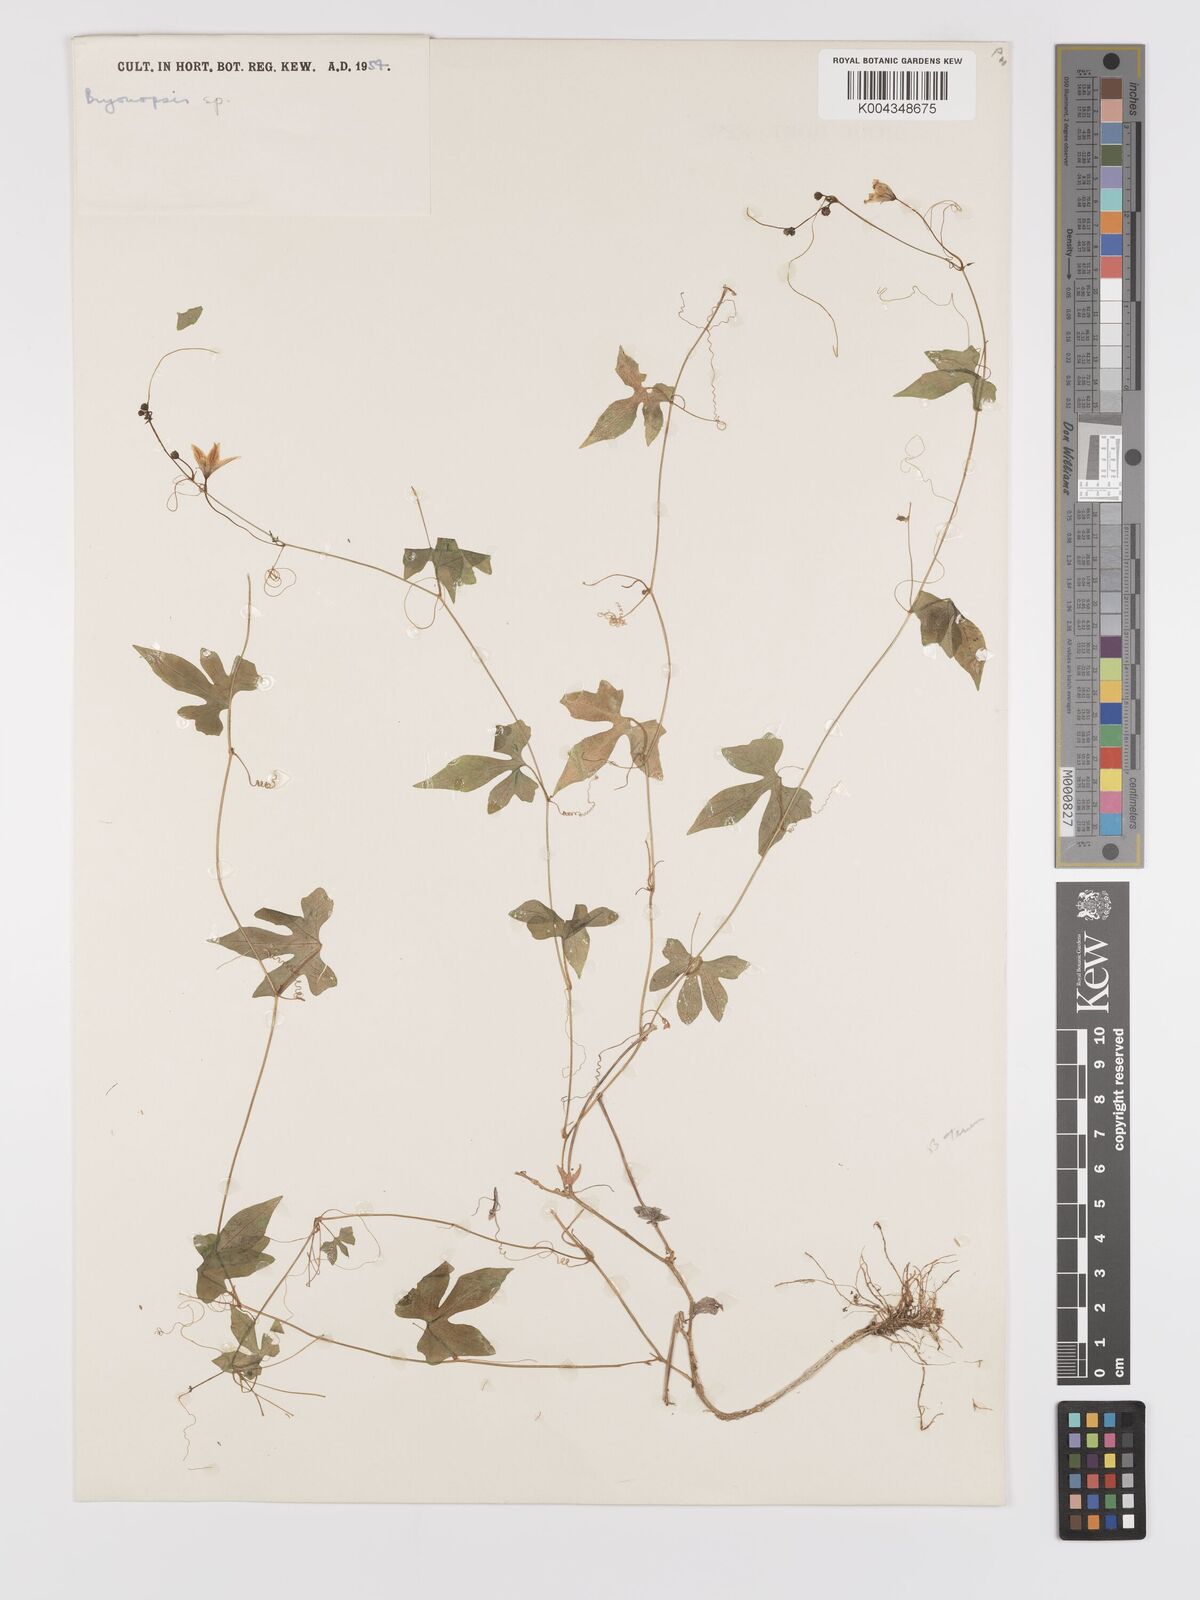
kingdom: Plantae
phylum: Tracheophyta
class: Magnoliopsida
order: Cucurbitales
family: Cucurbitaceae
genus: Diplocyclos
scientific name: Diplocyclos
